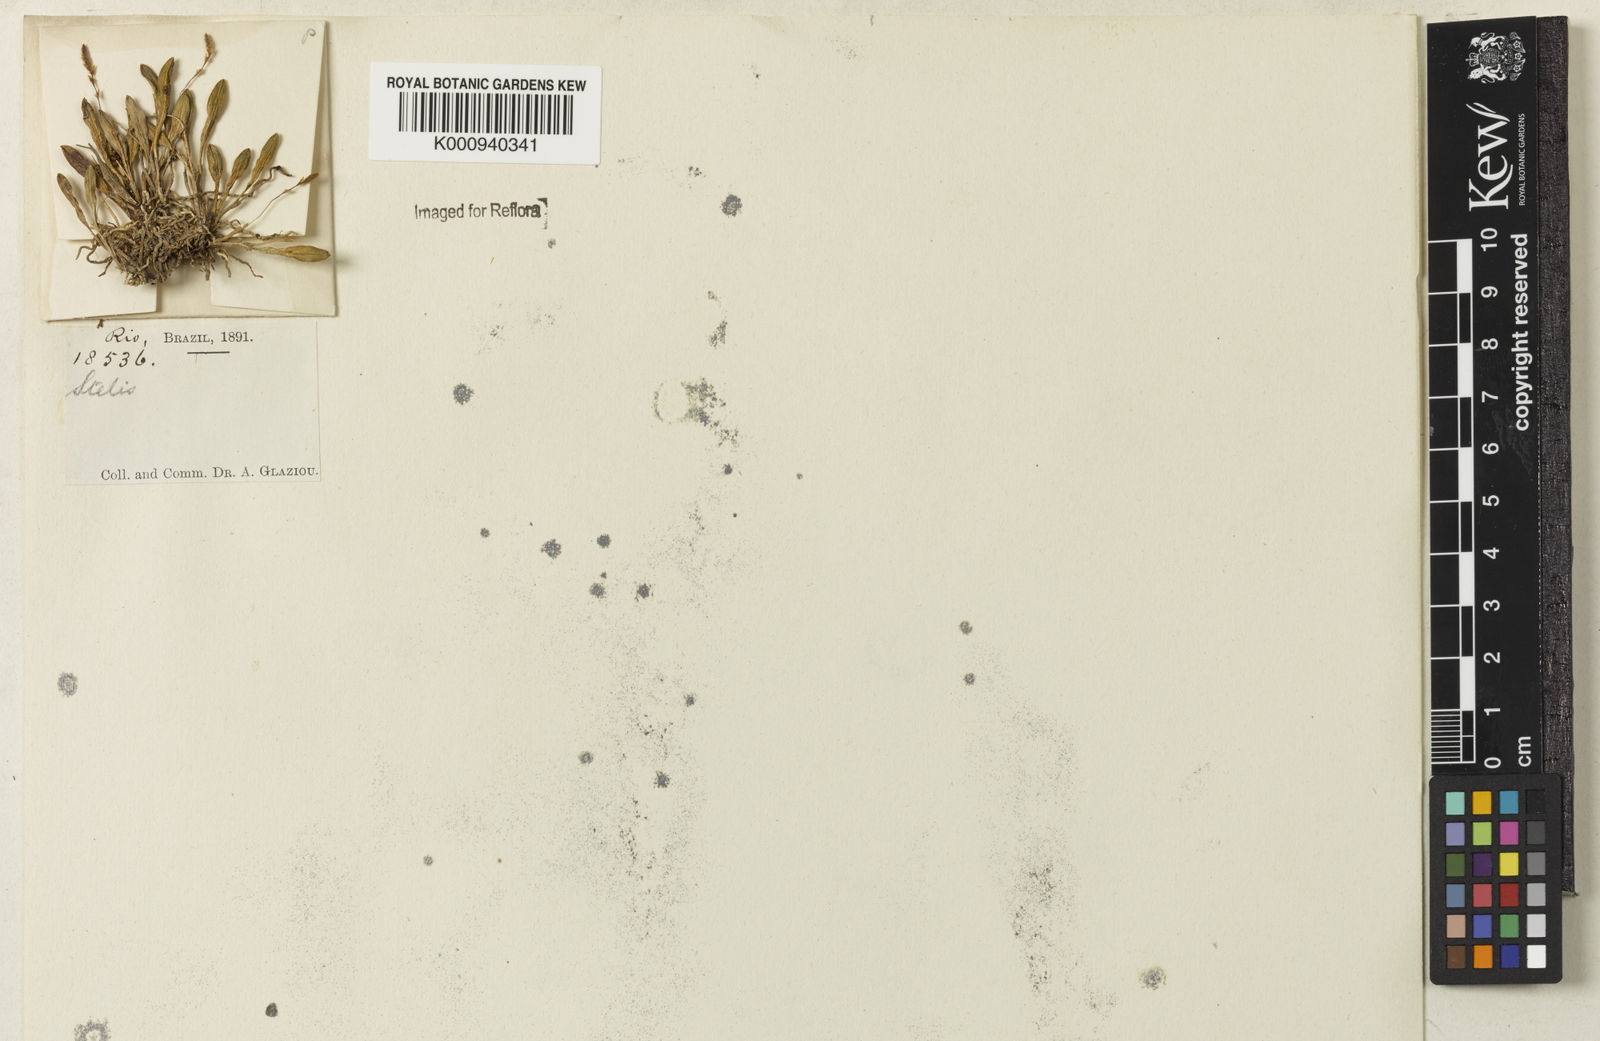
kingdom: Plantae
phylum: Tracheophyta
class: Liliopsida
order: Asparagales
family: Orchidaceae
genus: Stelis
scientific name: Stelis
